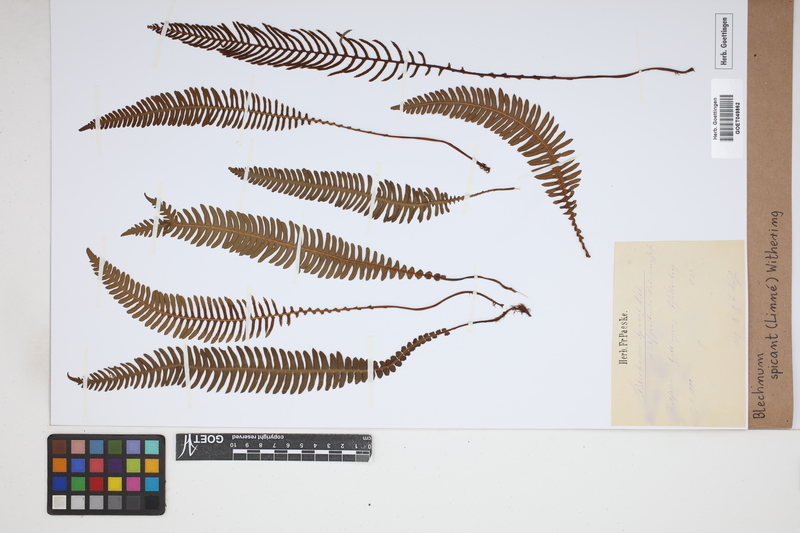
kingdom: Plantae
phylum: Tracheophyta
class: Polypodiopsida
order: Polypodiales
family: Blechnaceae
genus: Struthiopteris
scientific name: Struthiopteris spicant
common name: Deer fern
